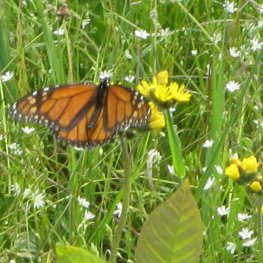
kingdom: Animalia
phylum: Arthropoda
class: Insecta
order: Lepidoptera
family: Nymphalidae
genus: Danaus
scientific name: Danaus plexippus
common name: Monarch
